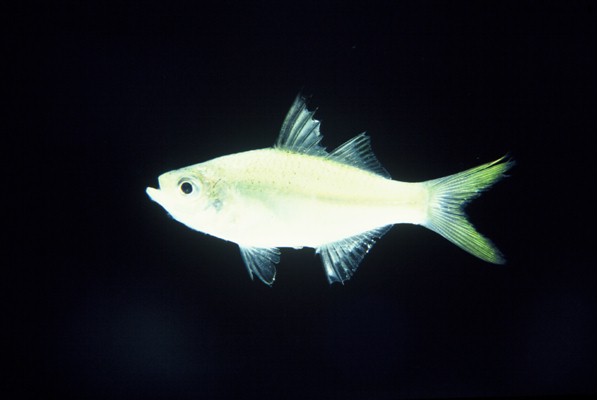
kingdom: Animalia
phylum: Chordata
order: Perciformes
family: Ambassidae
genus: Ambassis
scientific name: Ambassis natalensis
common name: Slender glassy
